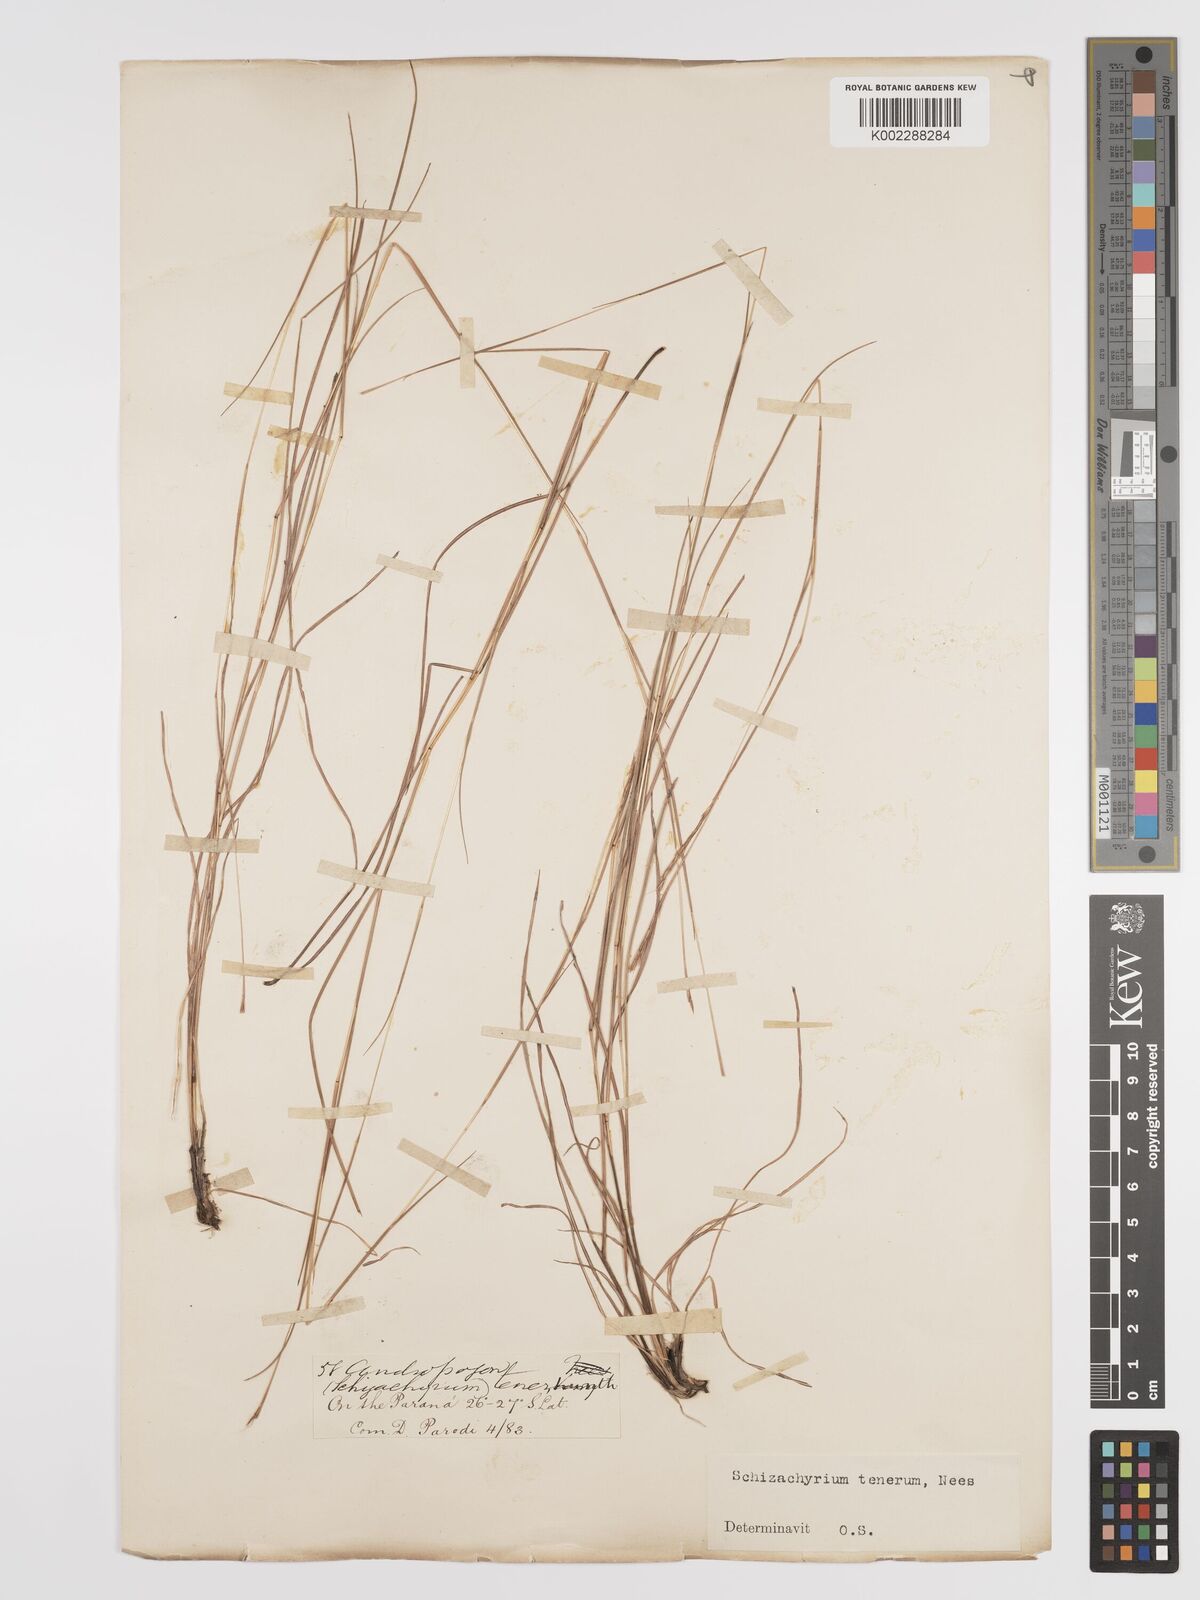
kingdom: Plantae
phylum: Tracheophyta
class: Liliopsida
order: Poales
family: Poaceae
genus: Andropogon
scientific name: Andropogon tener
